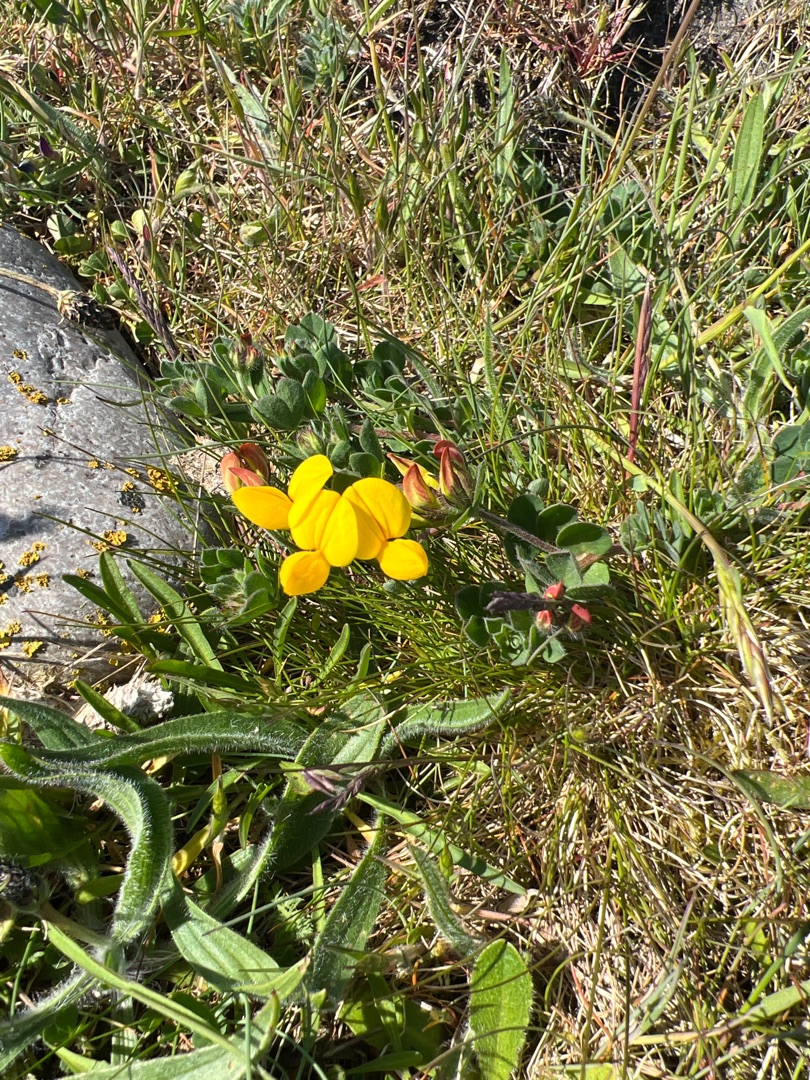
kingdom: Plantae
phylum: Tracheophyta
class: Magnoliopsida
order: Fabales
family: Fabaceae
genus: Lotus
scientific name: Lotus corniculatus
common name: Almindelig kællingetand
